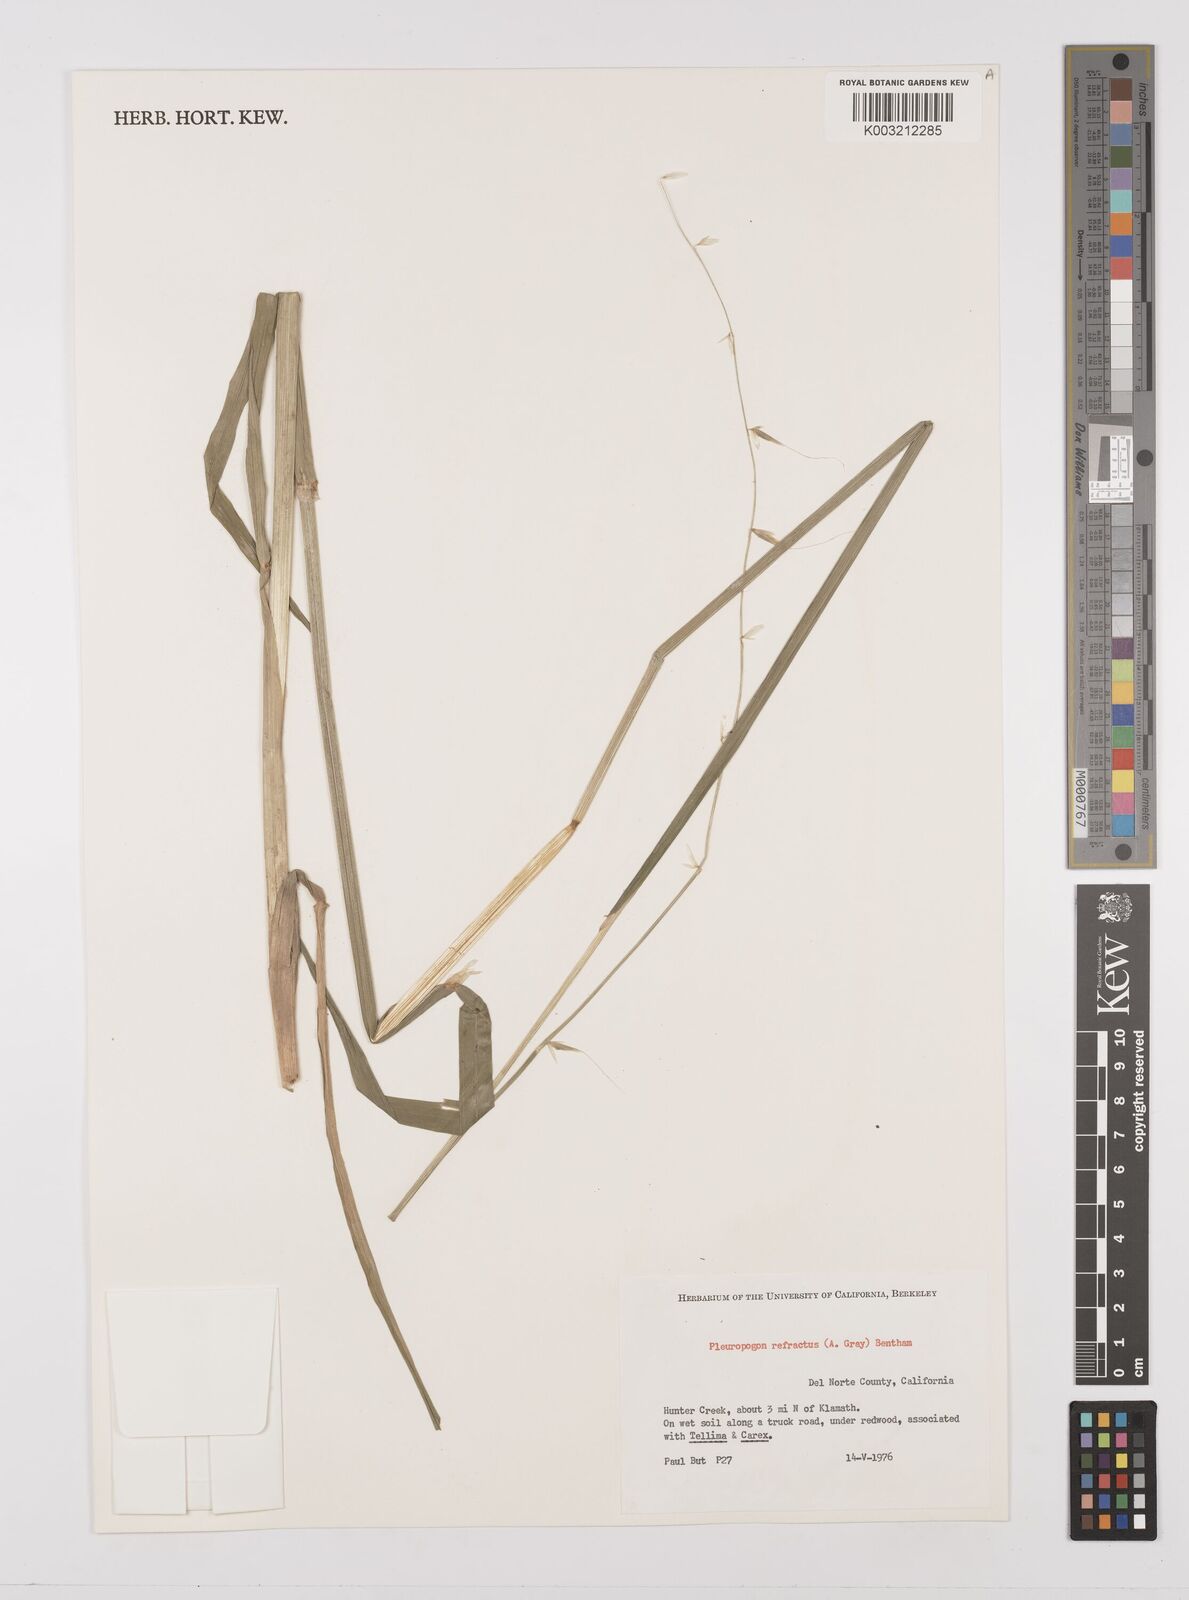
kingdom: Plantae
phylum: Tracheophyta
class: Liliopsida
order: Poales
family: Poaceae
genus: Pleuropogon
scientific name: Pleuropogon refractus
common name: Nodding false semaphoregrass
